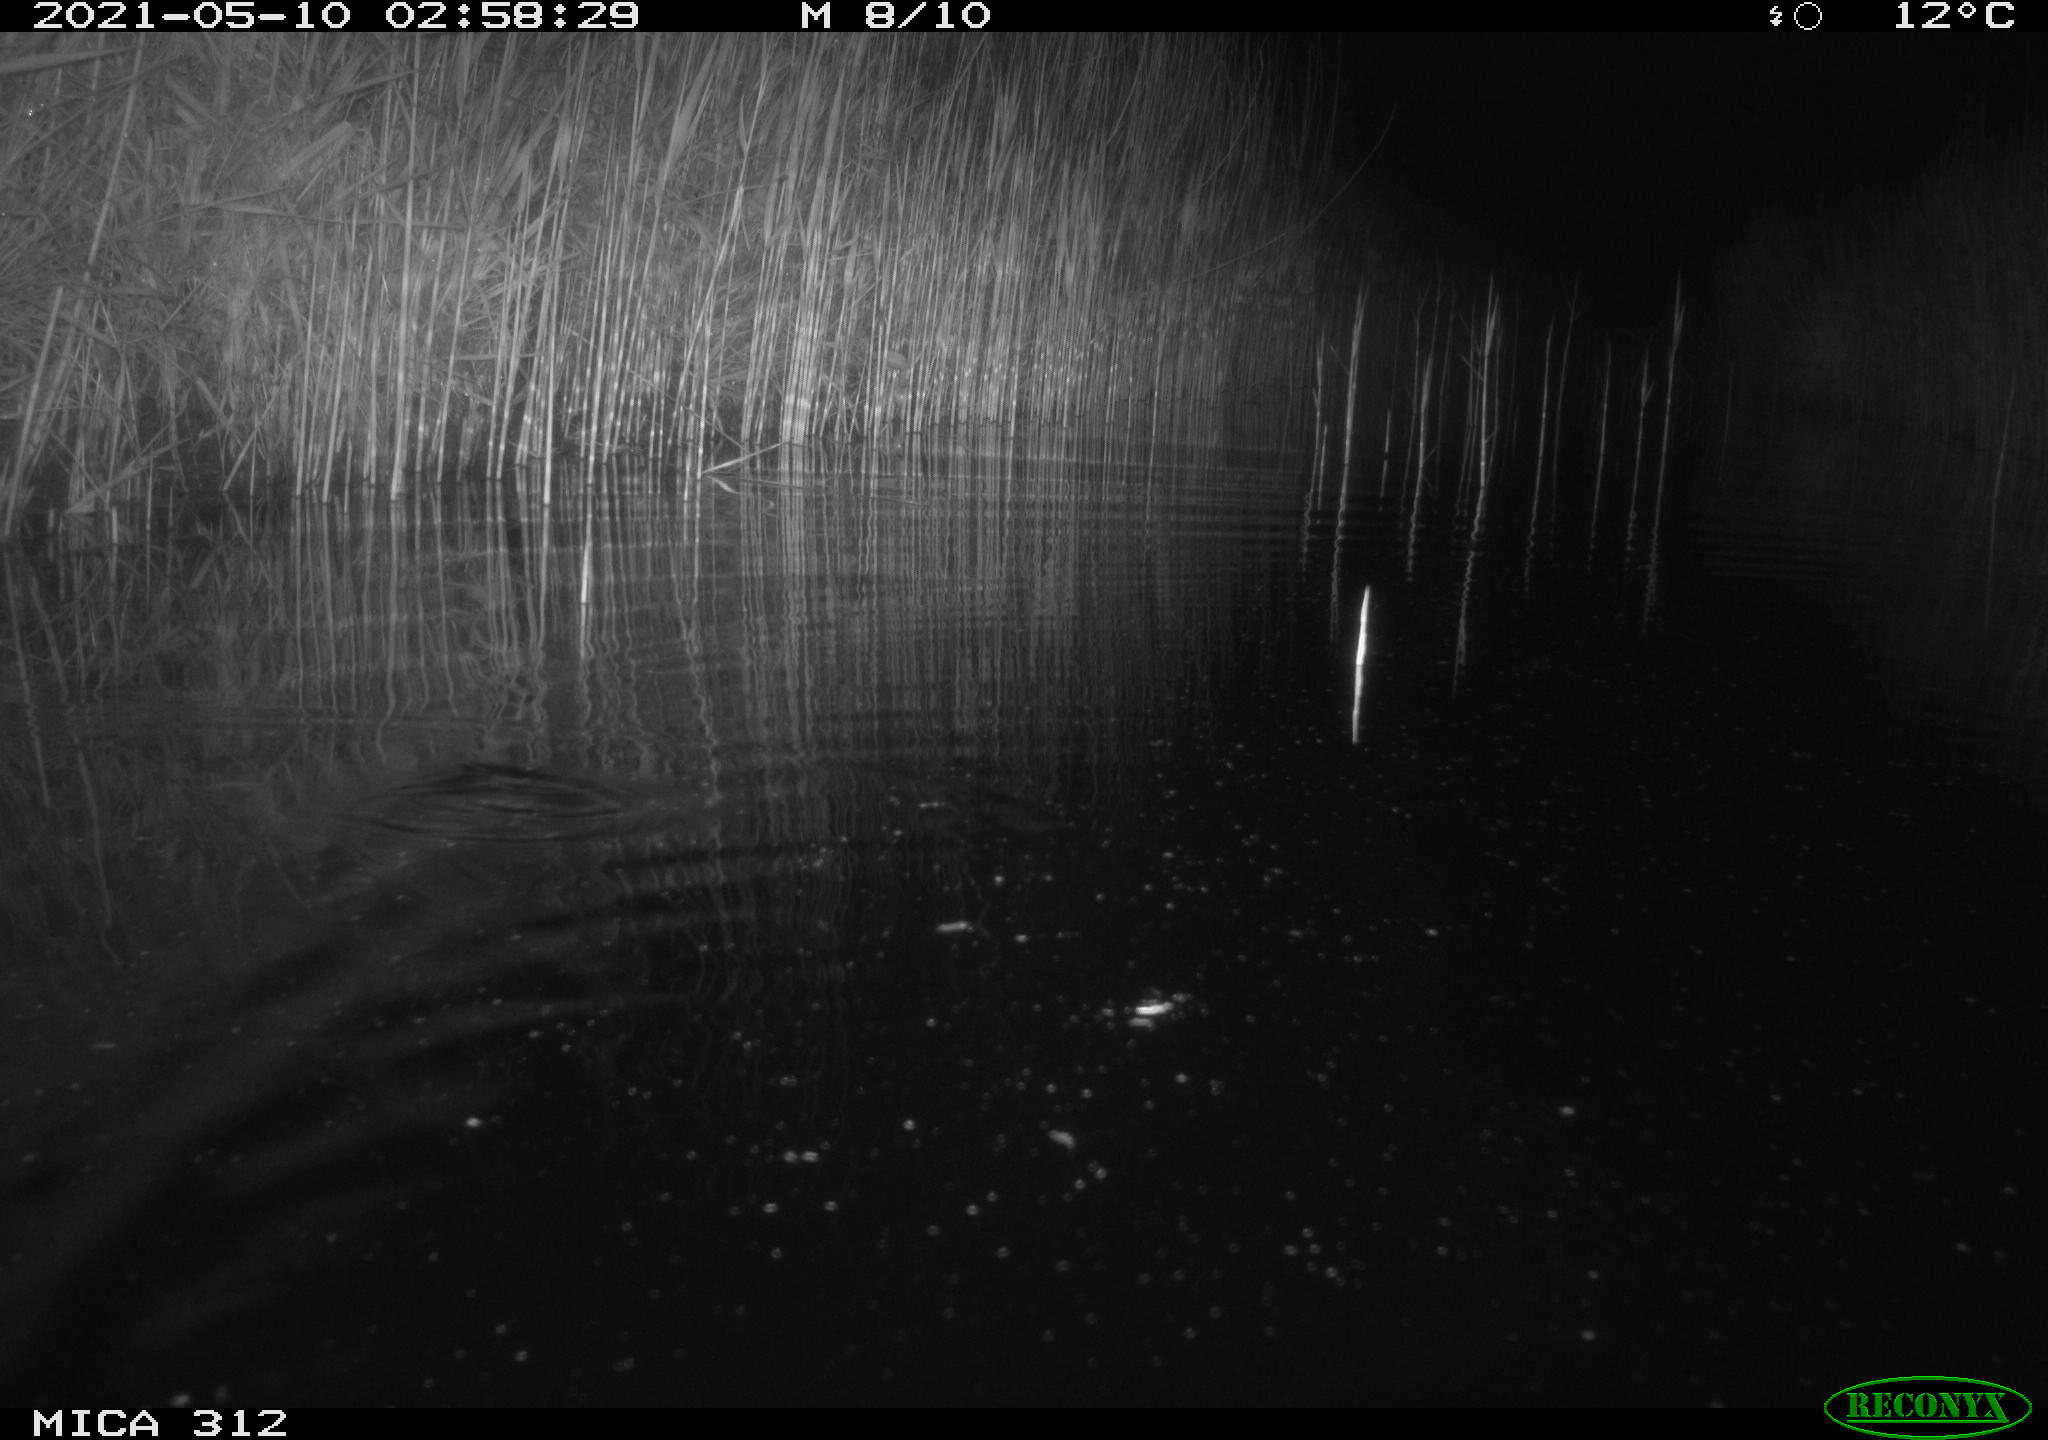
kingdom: Animalia
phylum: Chordata
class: Mammalia
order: Rodentia
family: Muridae
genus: Rattus
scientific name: Rattus norvegicus
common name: Brown rat
